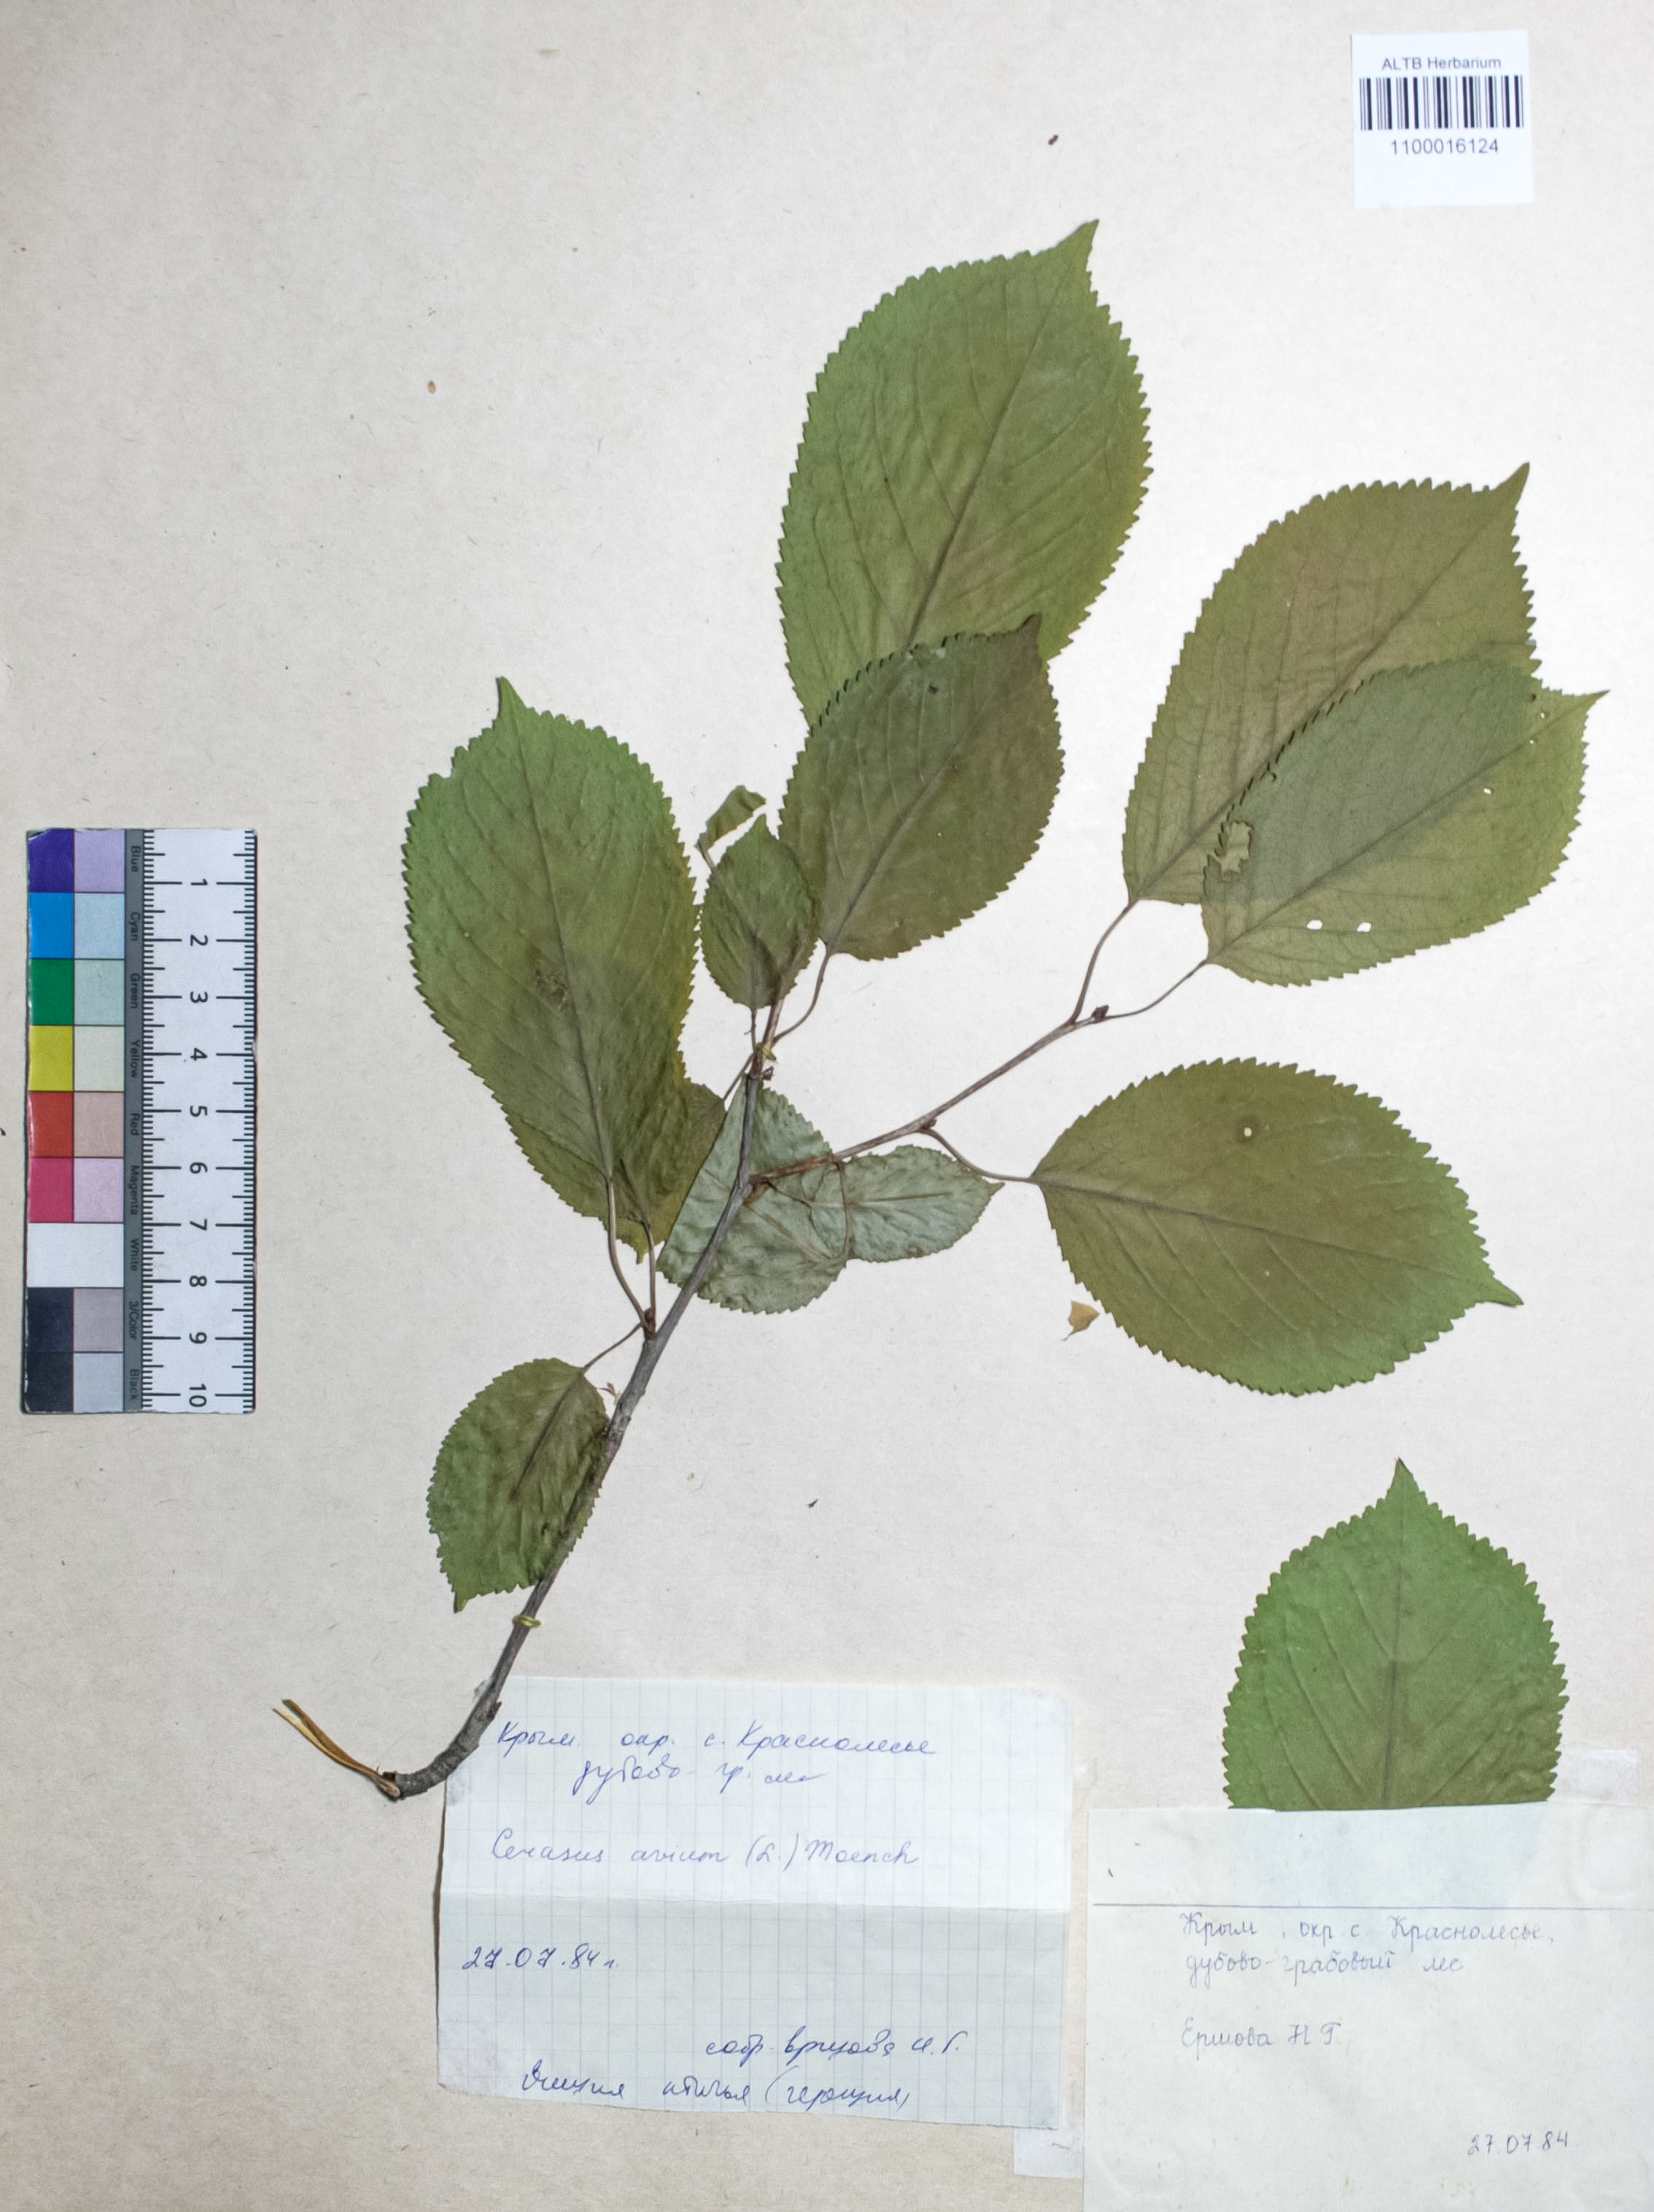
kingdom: Plantae
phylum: Tracheophyta
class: Magnoliopsida
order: Rosales
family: Rosaceae
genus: Prunus
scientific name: Prunus avium
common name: Sweet cherry
